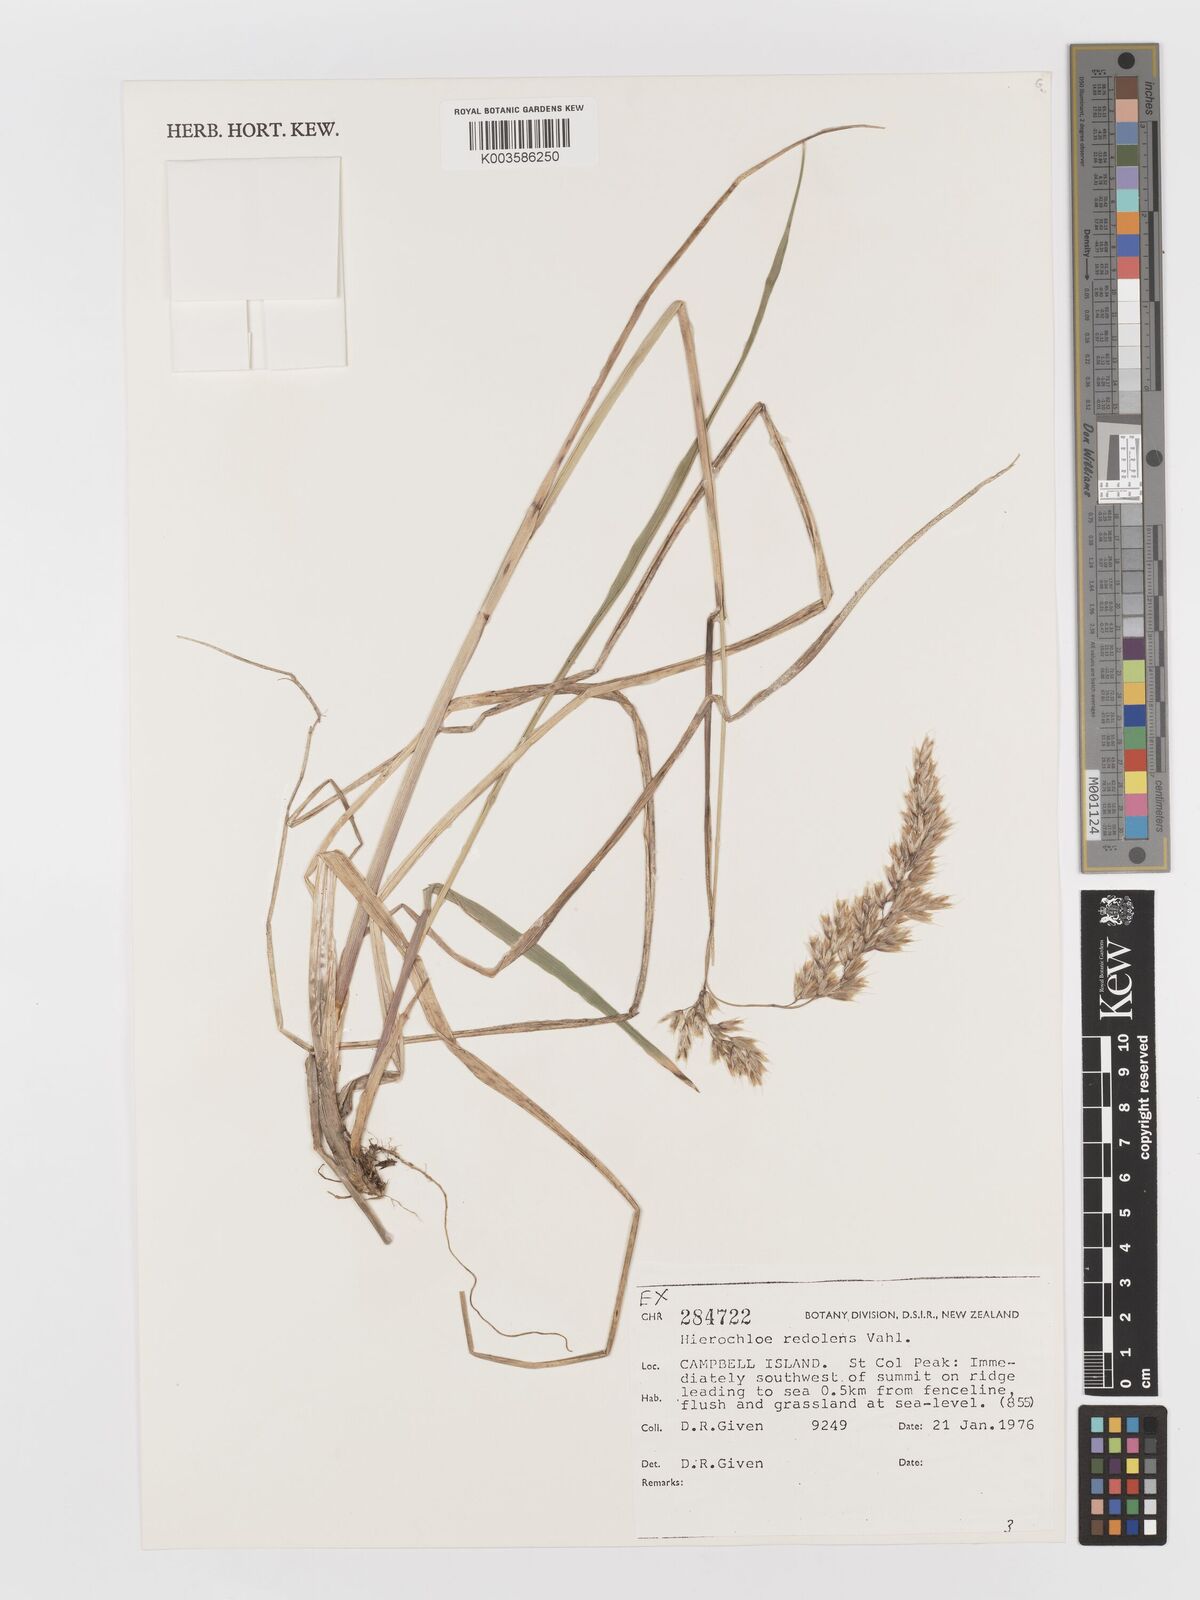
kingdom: Plantae
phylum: Tracheophyta
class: Liliopsida
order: Poales
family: Poaceae
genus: Anthoxanthum
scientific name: Anthoxanthum redolens
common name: Sweet holy grass
